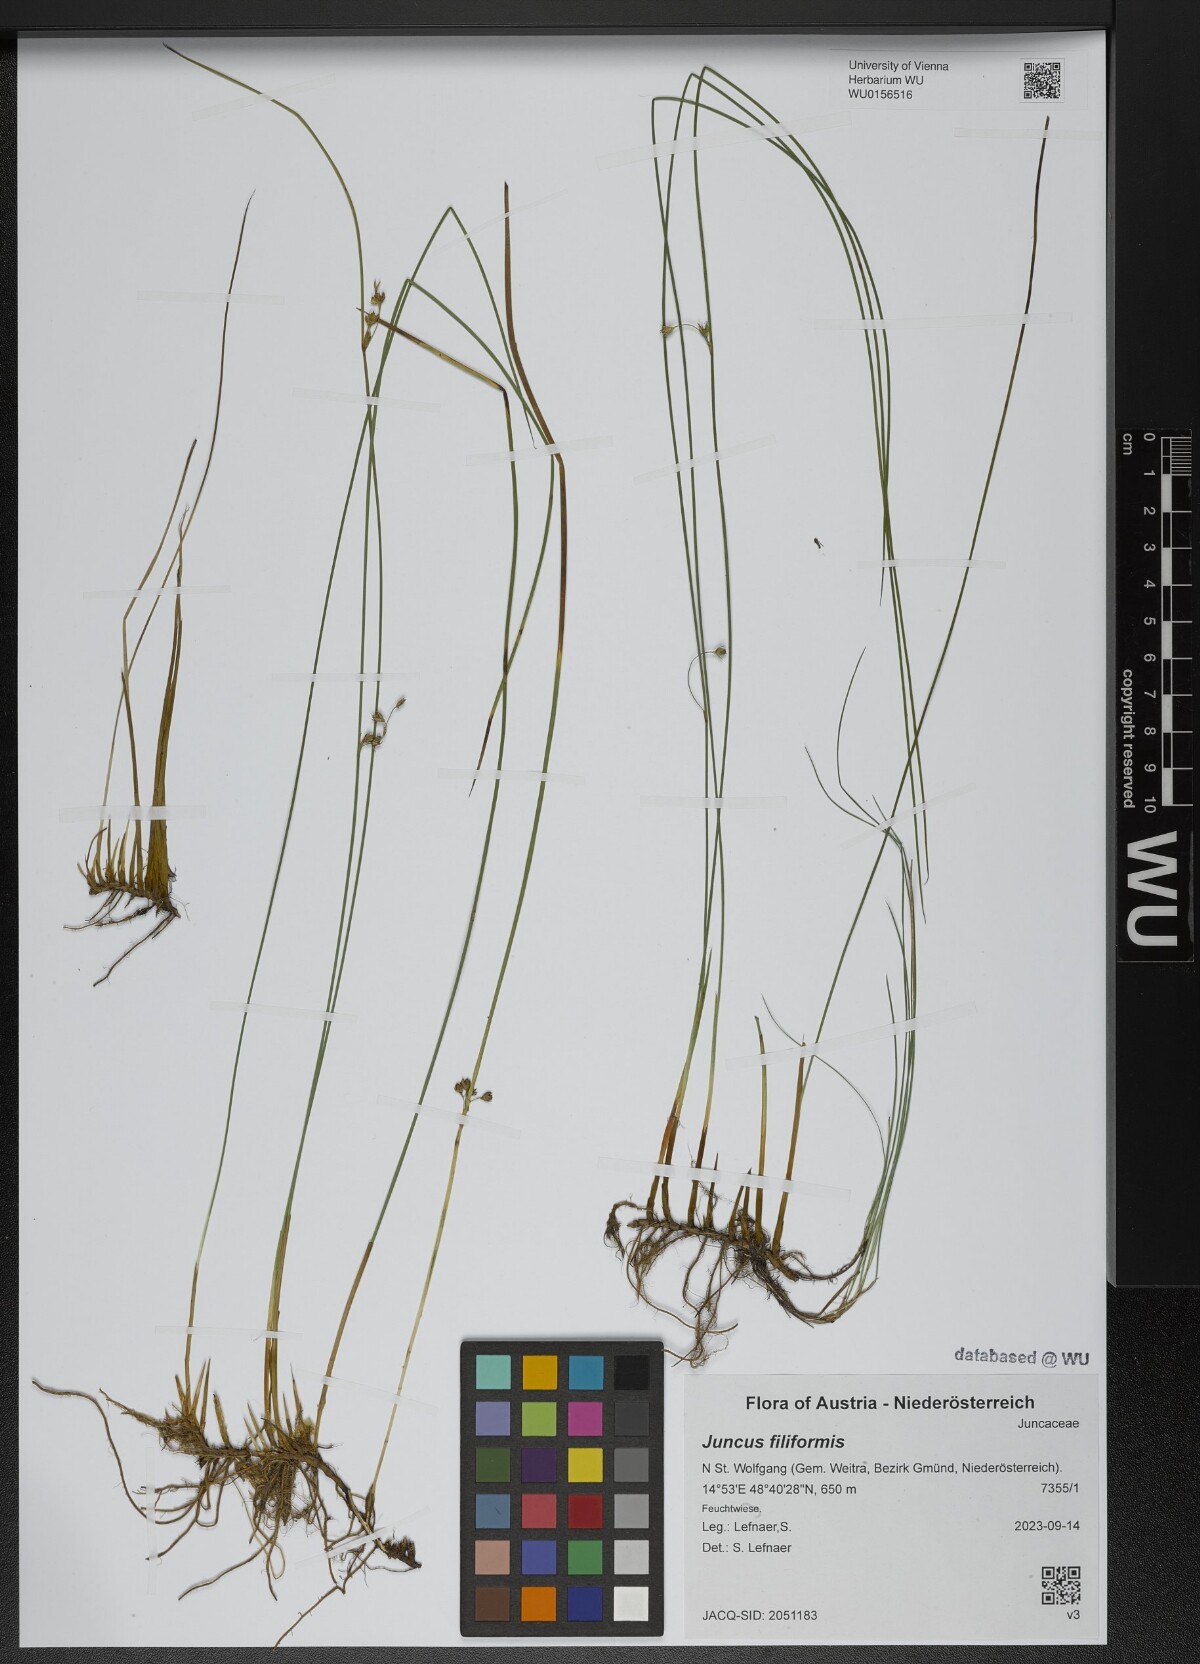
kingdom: Plantae
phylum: Tracheophyta
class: Liliopsida
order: Poales
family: Juncaceae
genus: Juncus
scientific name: Juncus filiformis
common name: Thread rush
